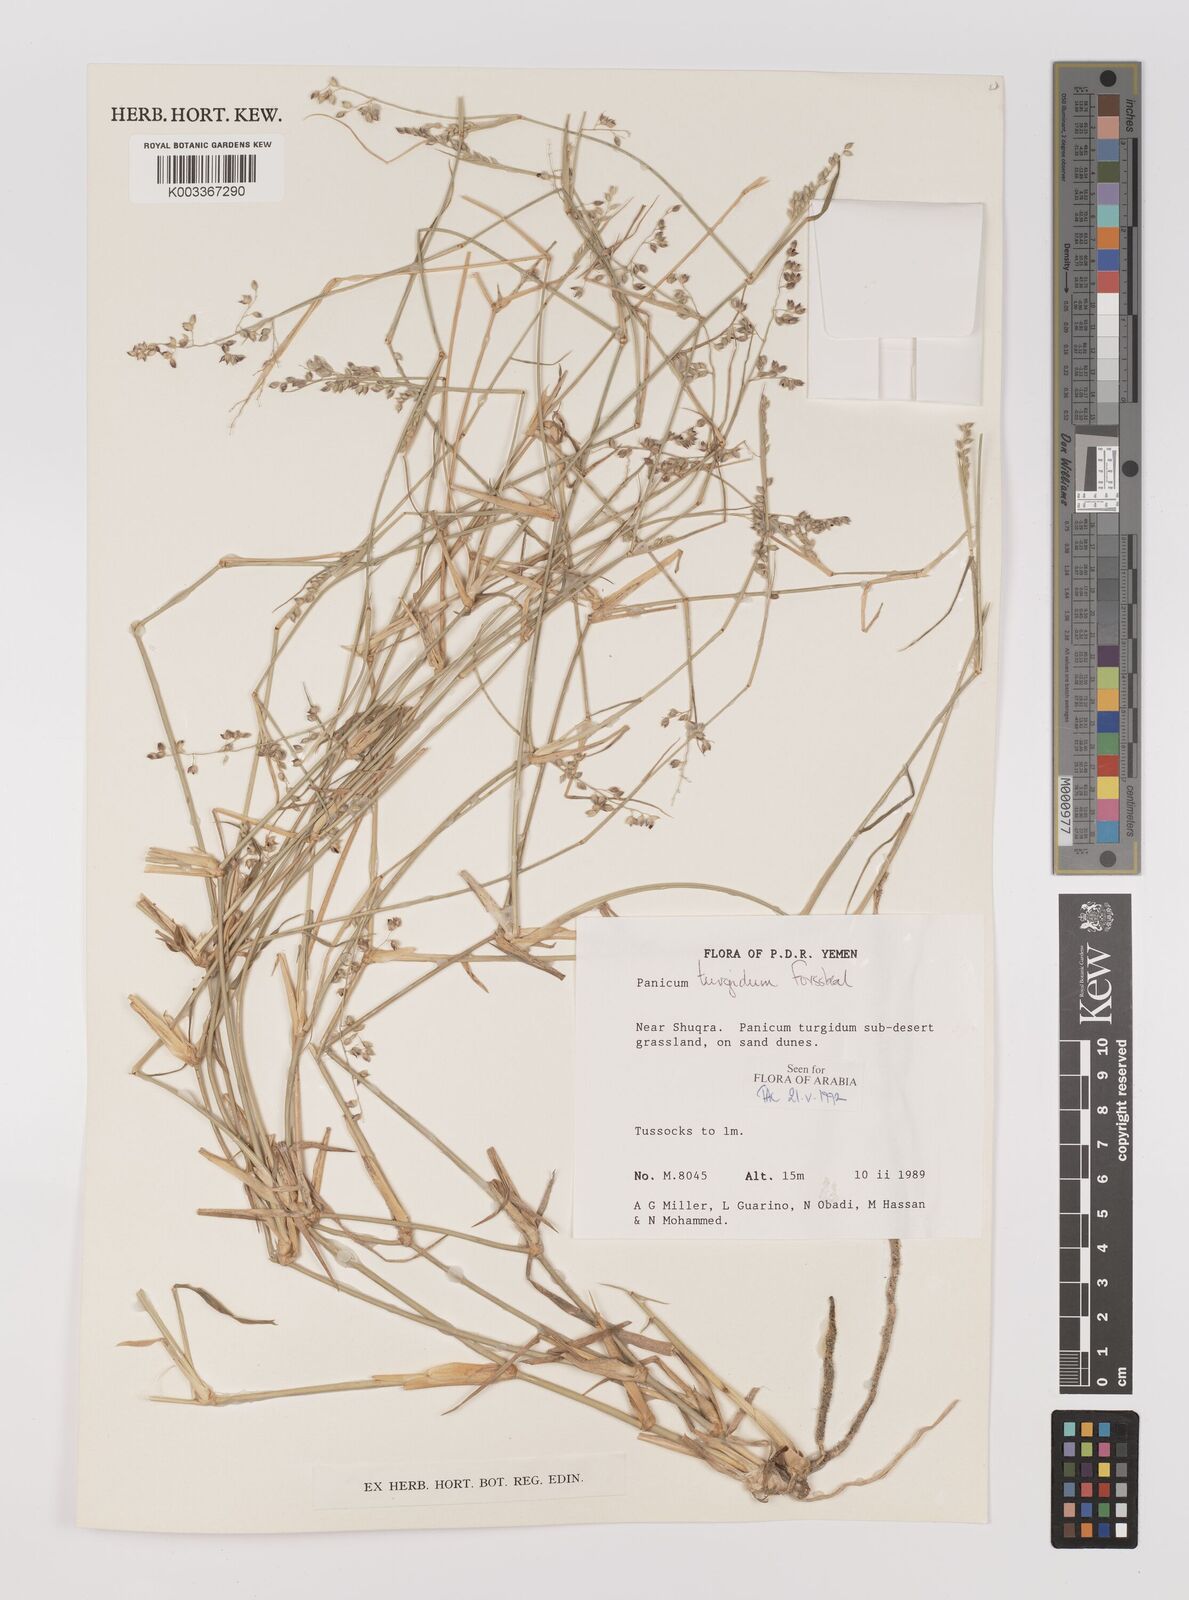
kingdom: Plantae
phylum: Tracheophyta
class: Liliopsida
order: Poales
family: Poaceae
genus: Panicum
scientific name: Panicum turgidum
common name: Desert grass
